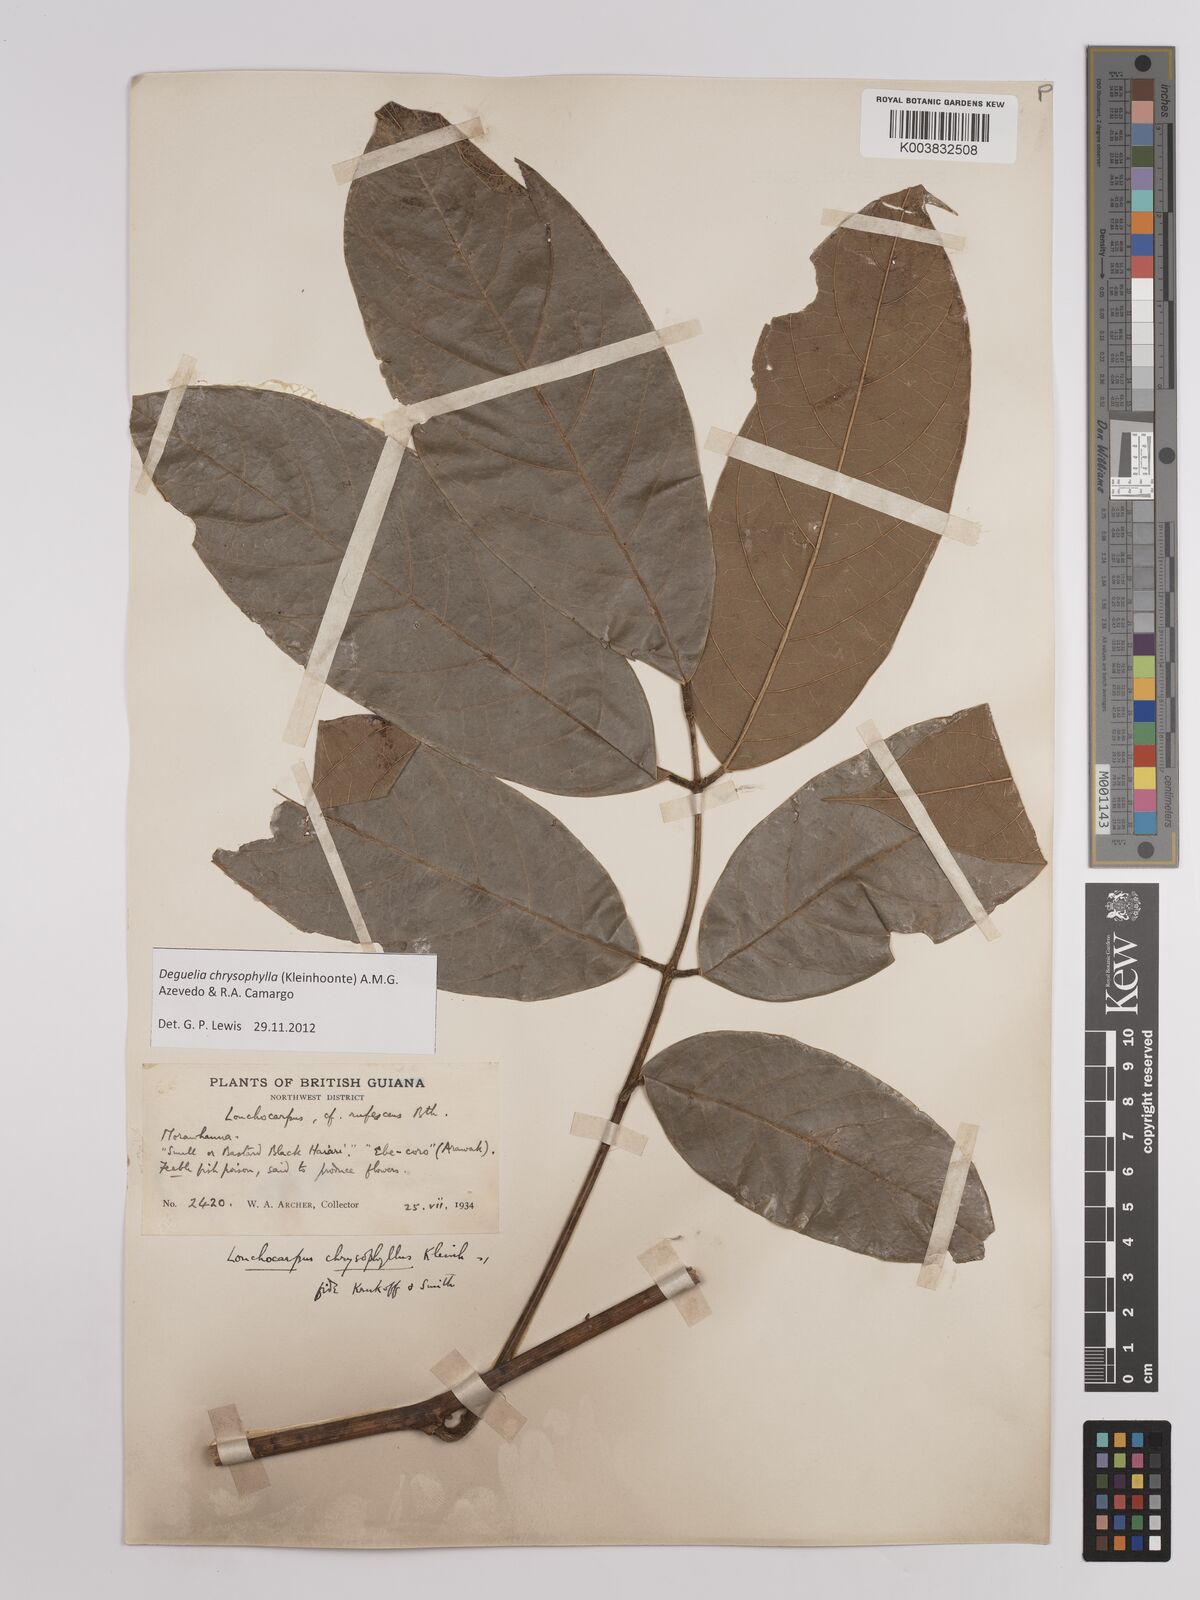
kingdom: Plantae
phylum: Tracheophyta
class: Magnoliopsida
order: Fabales
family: Fabaceae
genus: Deguelia
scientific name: Deguelia chrysophylla
